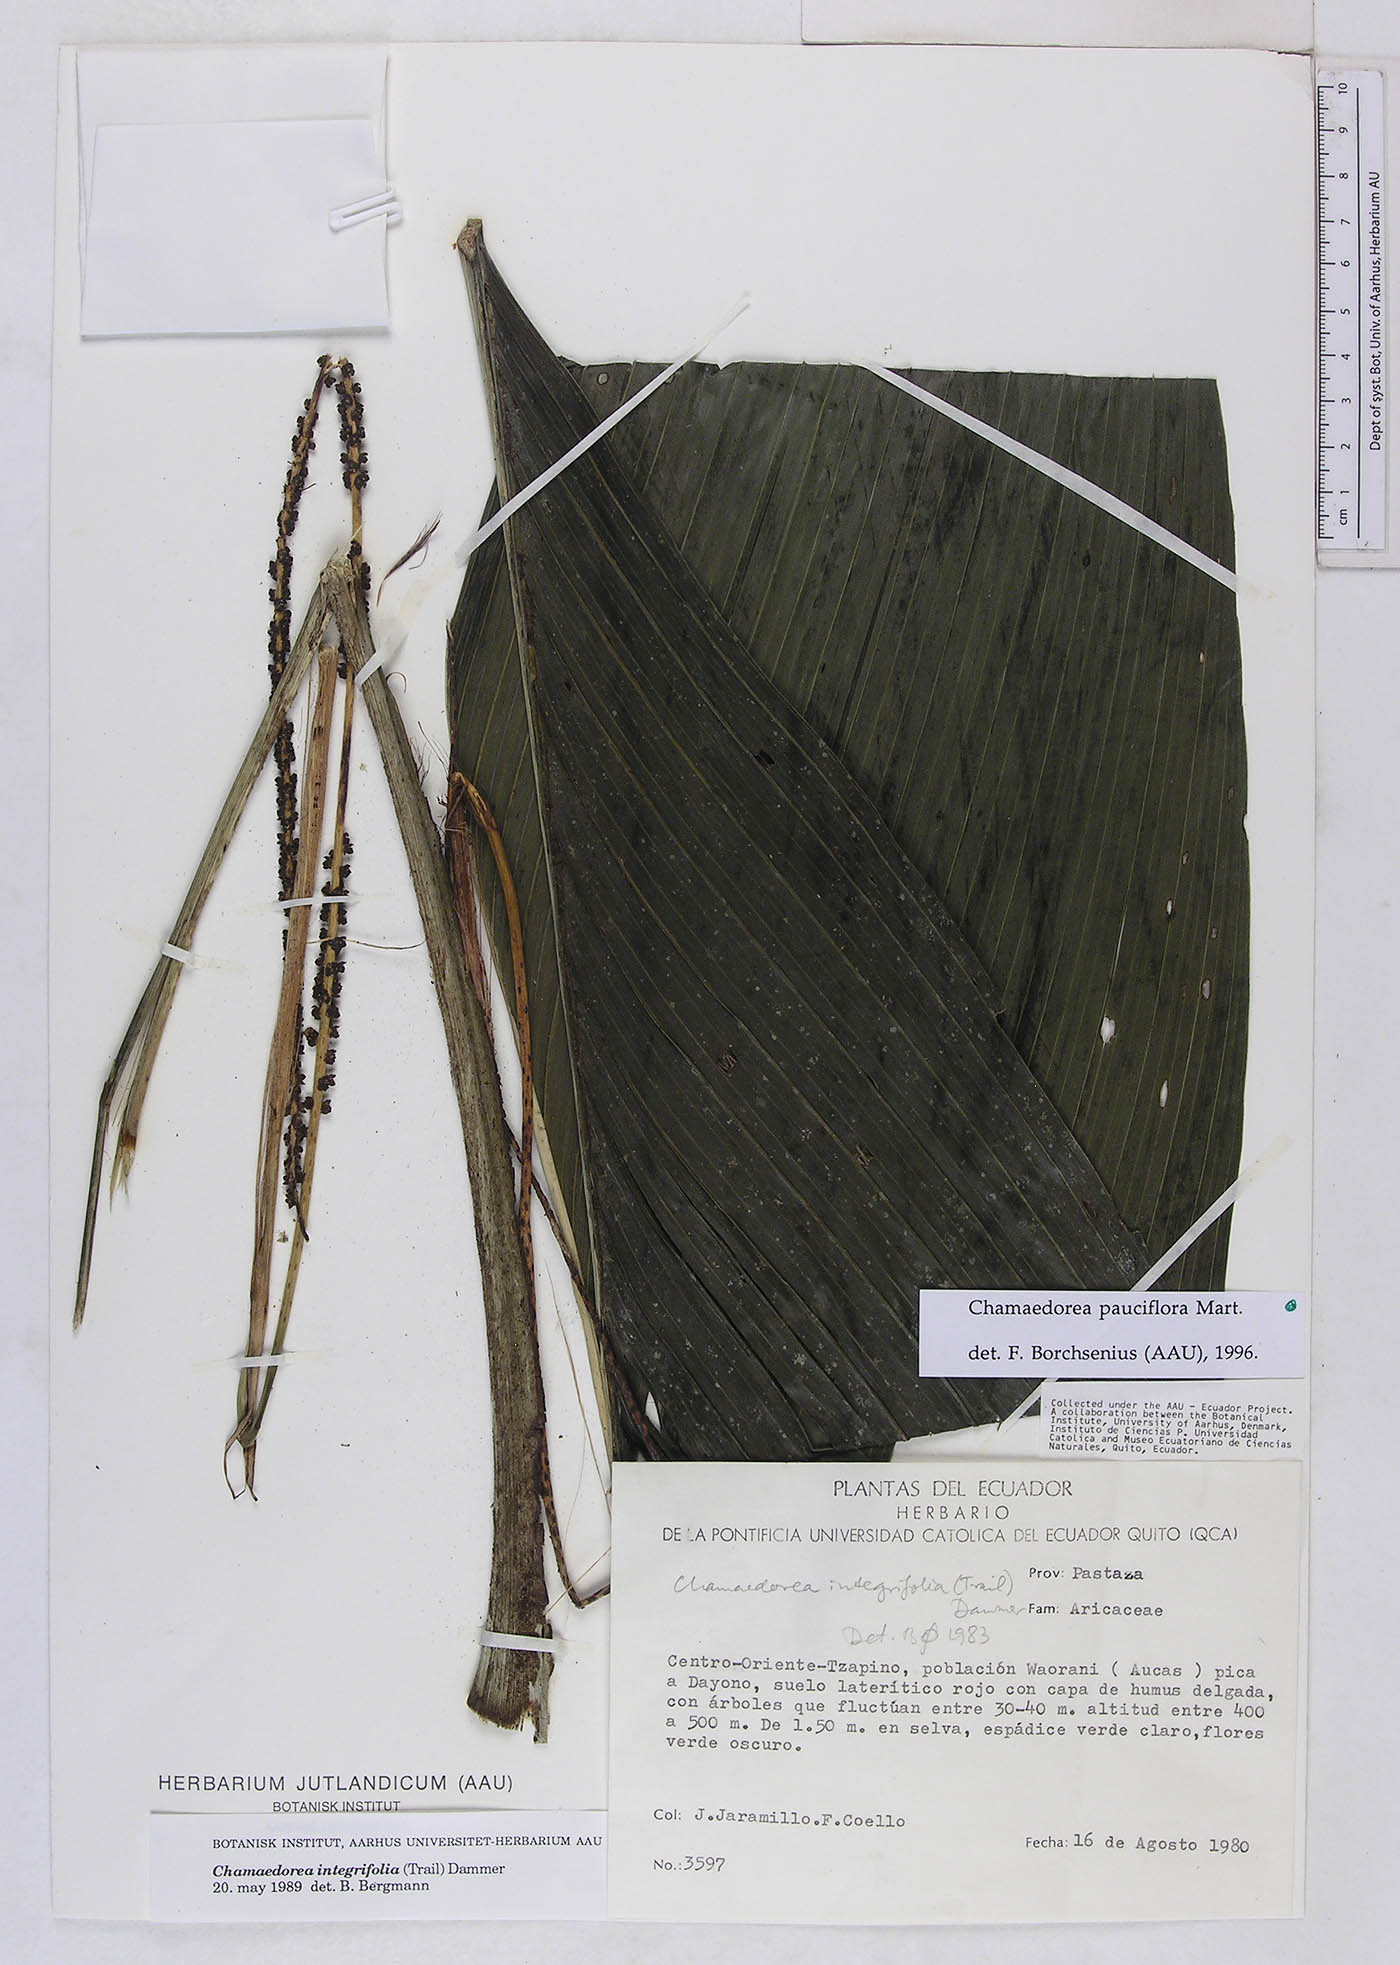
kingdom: Plantae
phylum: Tracheophyta
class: Liliopsida
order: Arecales
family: Arecaceae
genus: Chamaedorea
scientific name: Chamaedorea pauciflora
